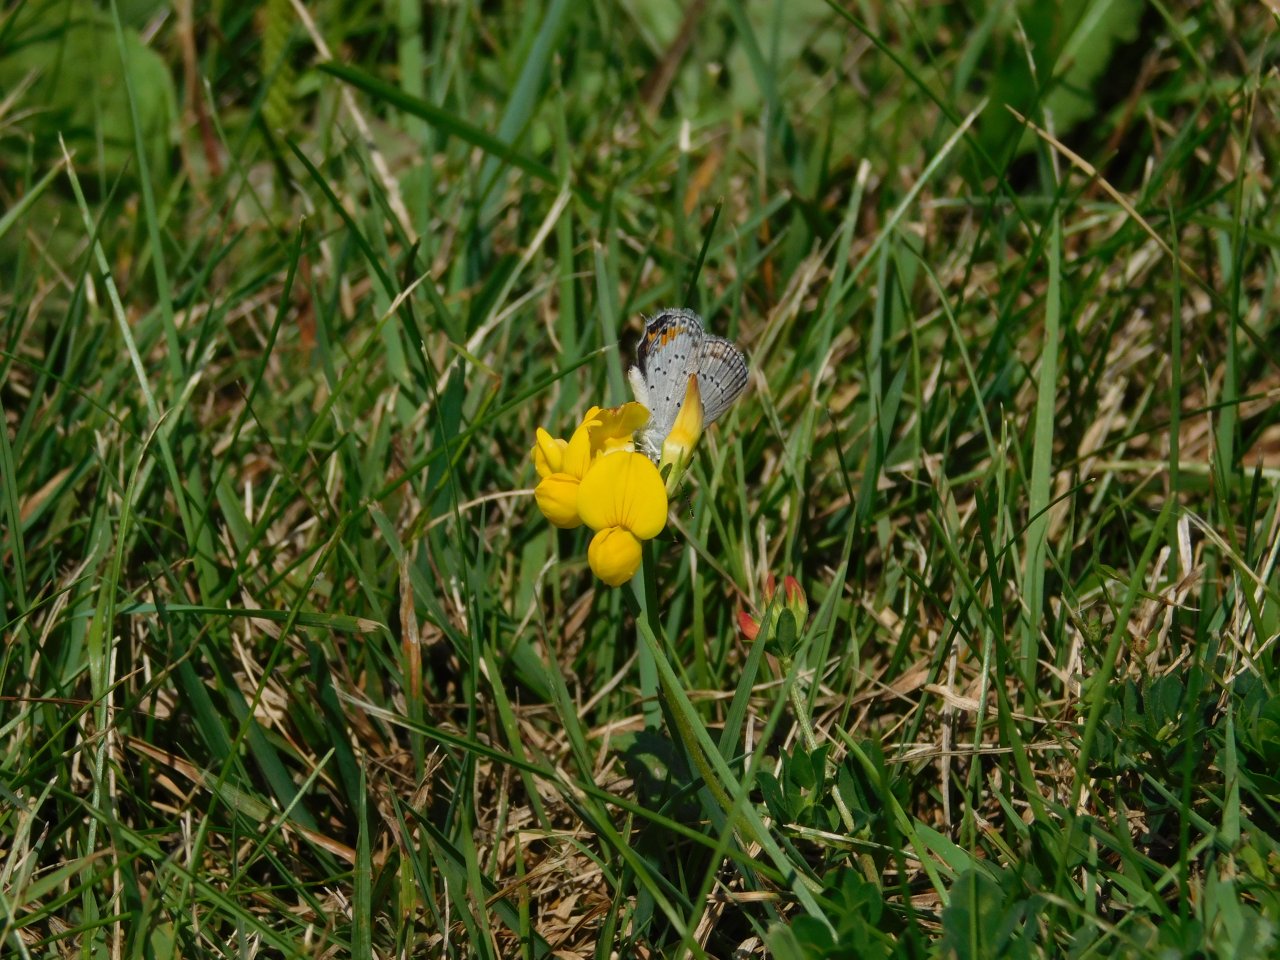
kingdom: Animalia
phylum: Arthropoda
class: Insecta
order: Lepidoptera
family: Lycaenidae
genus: Elkalyce
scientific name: Elkalyce comyntas
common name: Eastern Tailed-Blue
